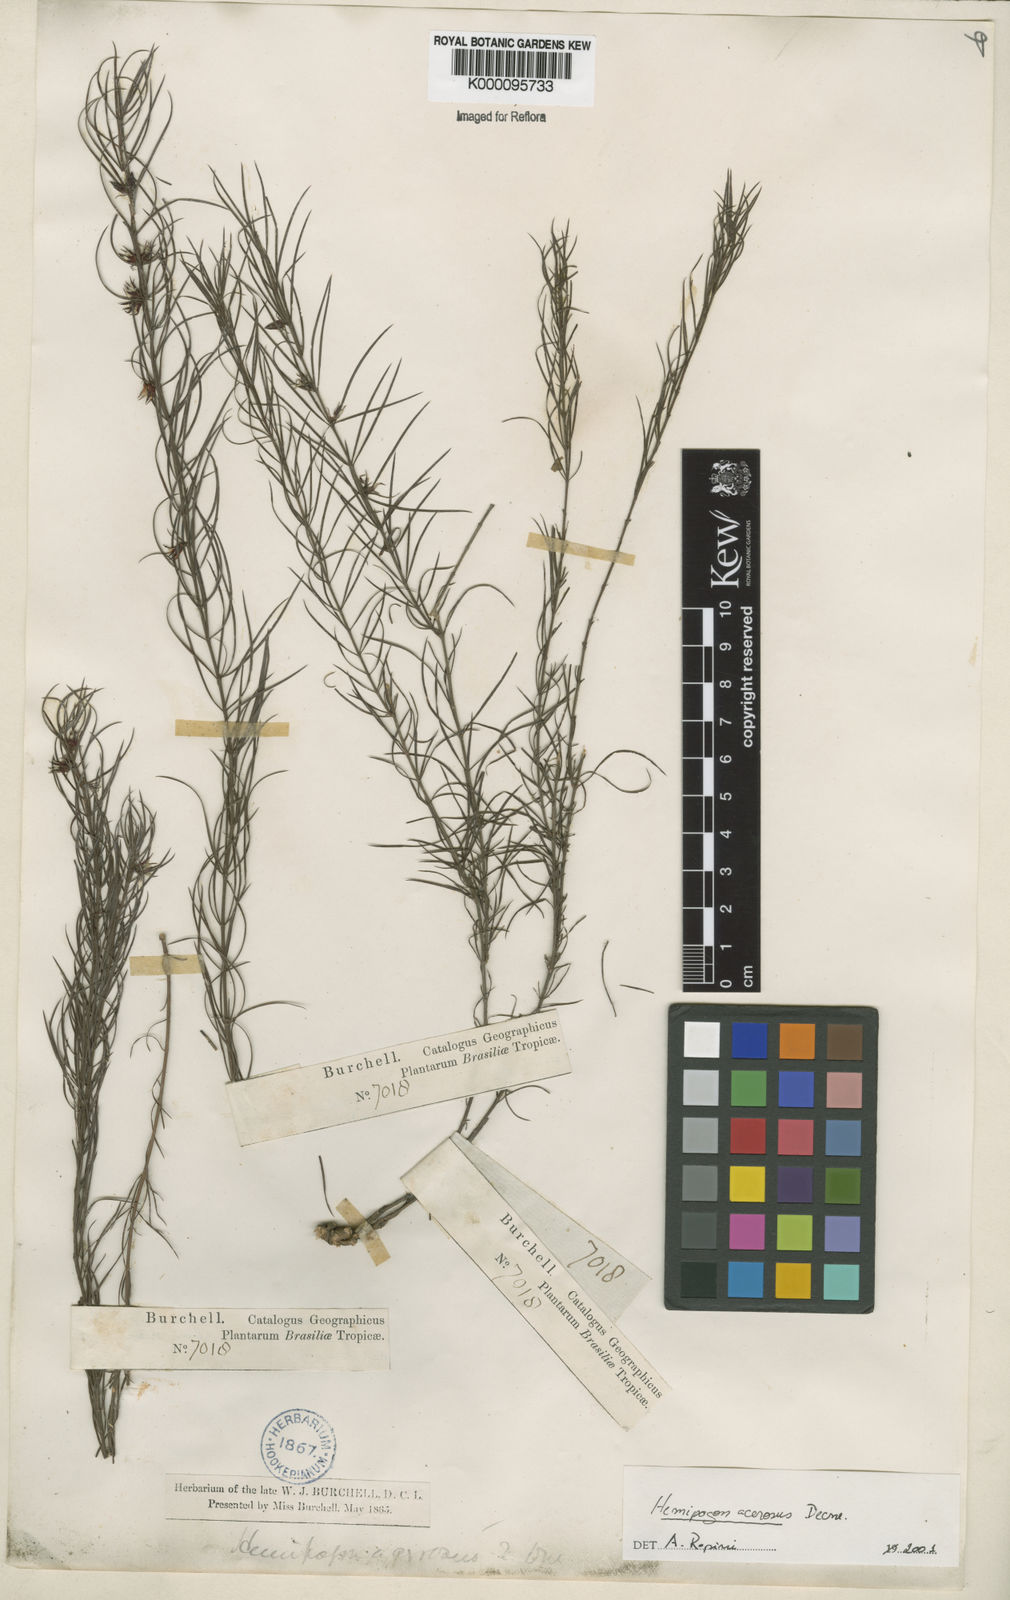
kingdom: Plantae
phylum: Tracheophyta
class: Magnoliopsida
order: Gentianales
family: Apocynaceae
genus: Hemipogon
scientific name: Hemipogon acerosus
